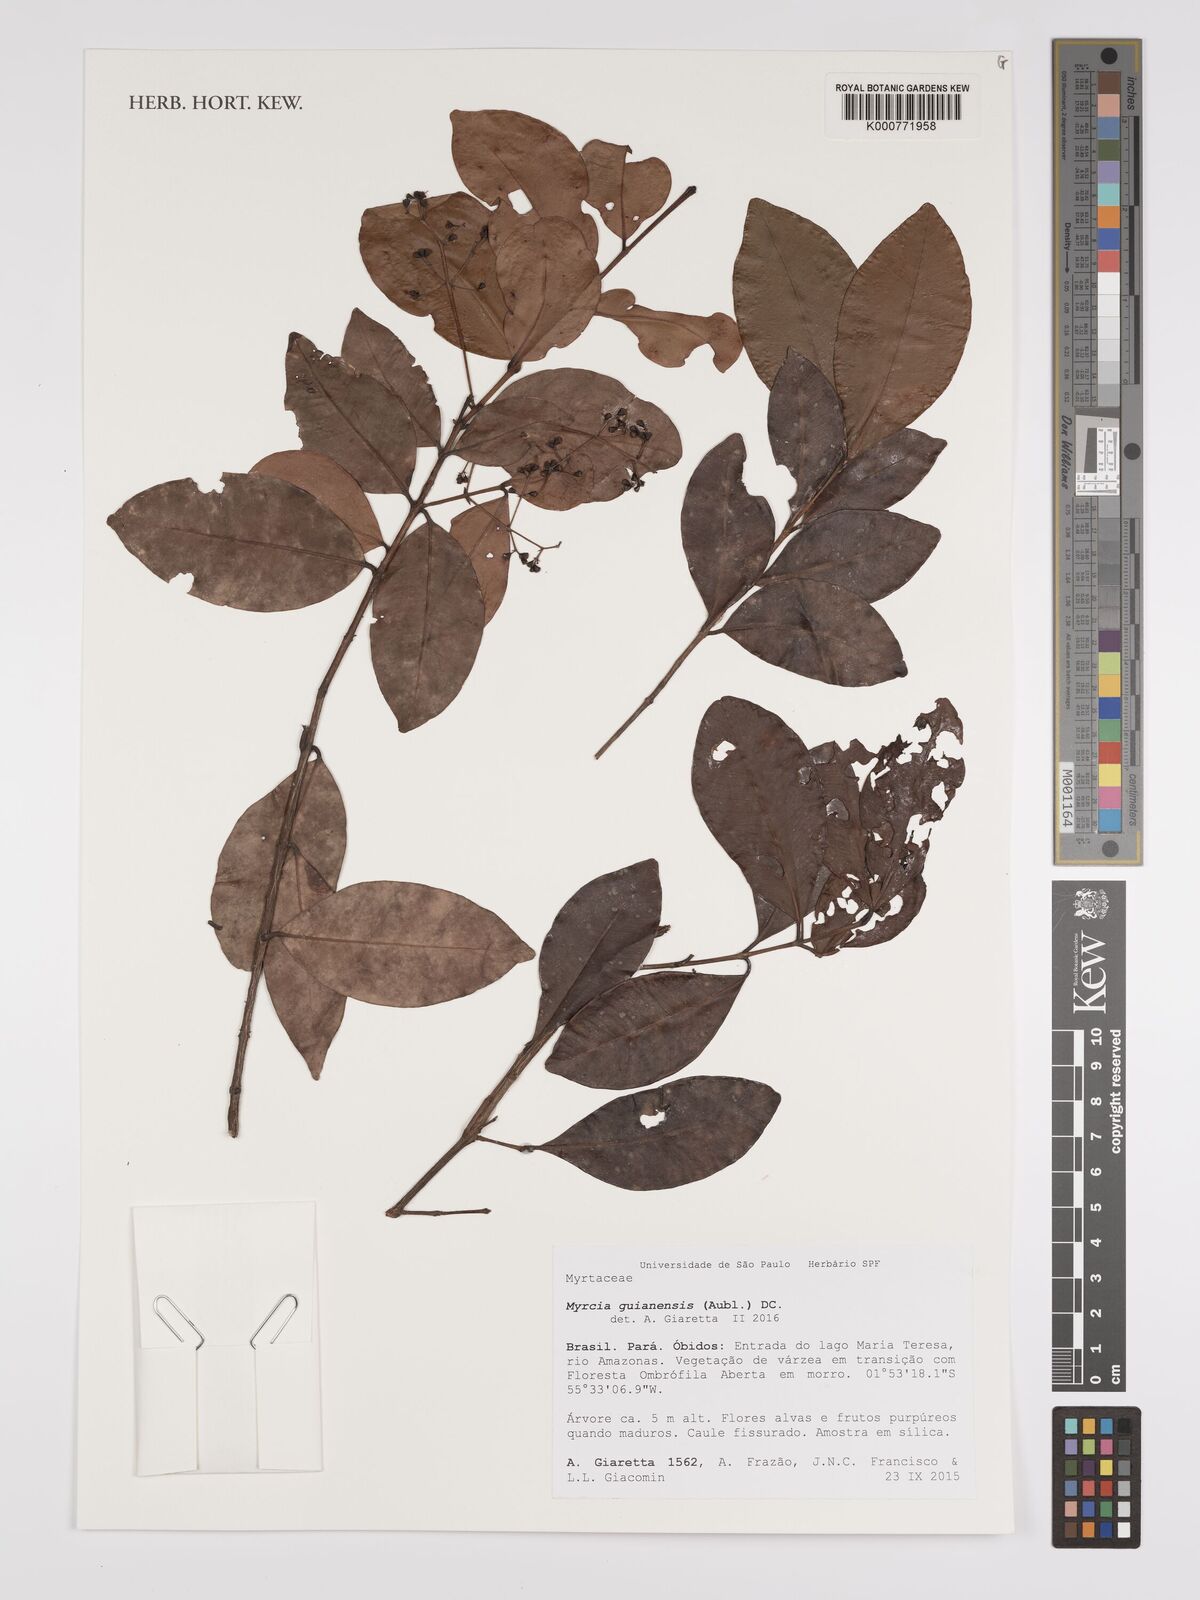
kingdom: Plantae
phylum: Tracheophyta
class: Magnoliopsida
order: Myrtales
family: Myrtaceae
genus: Myrcia
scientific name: Myrcia guianensis
